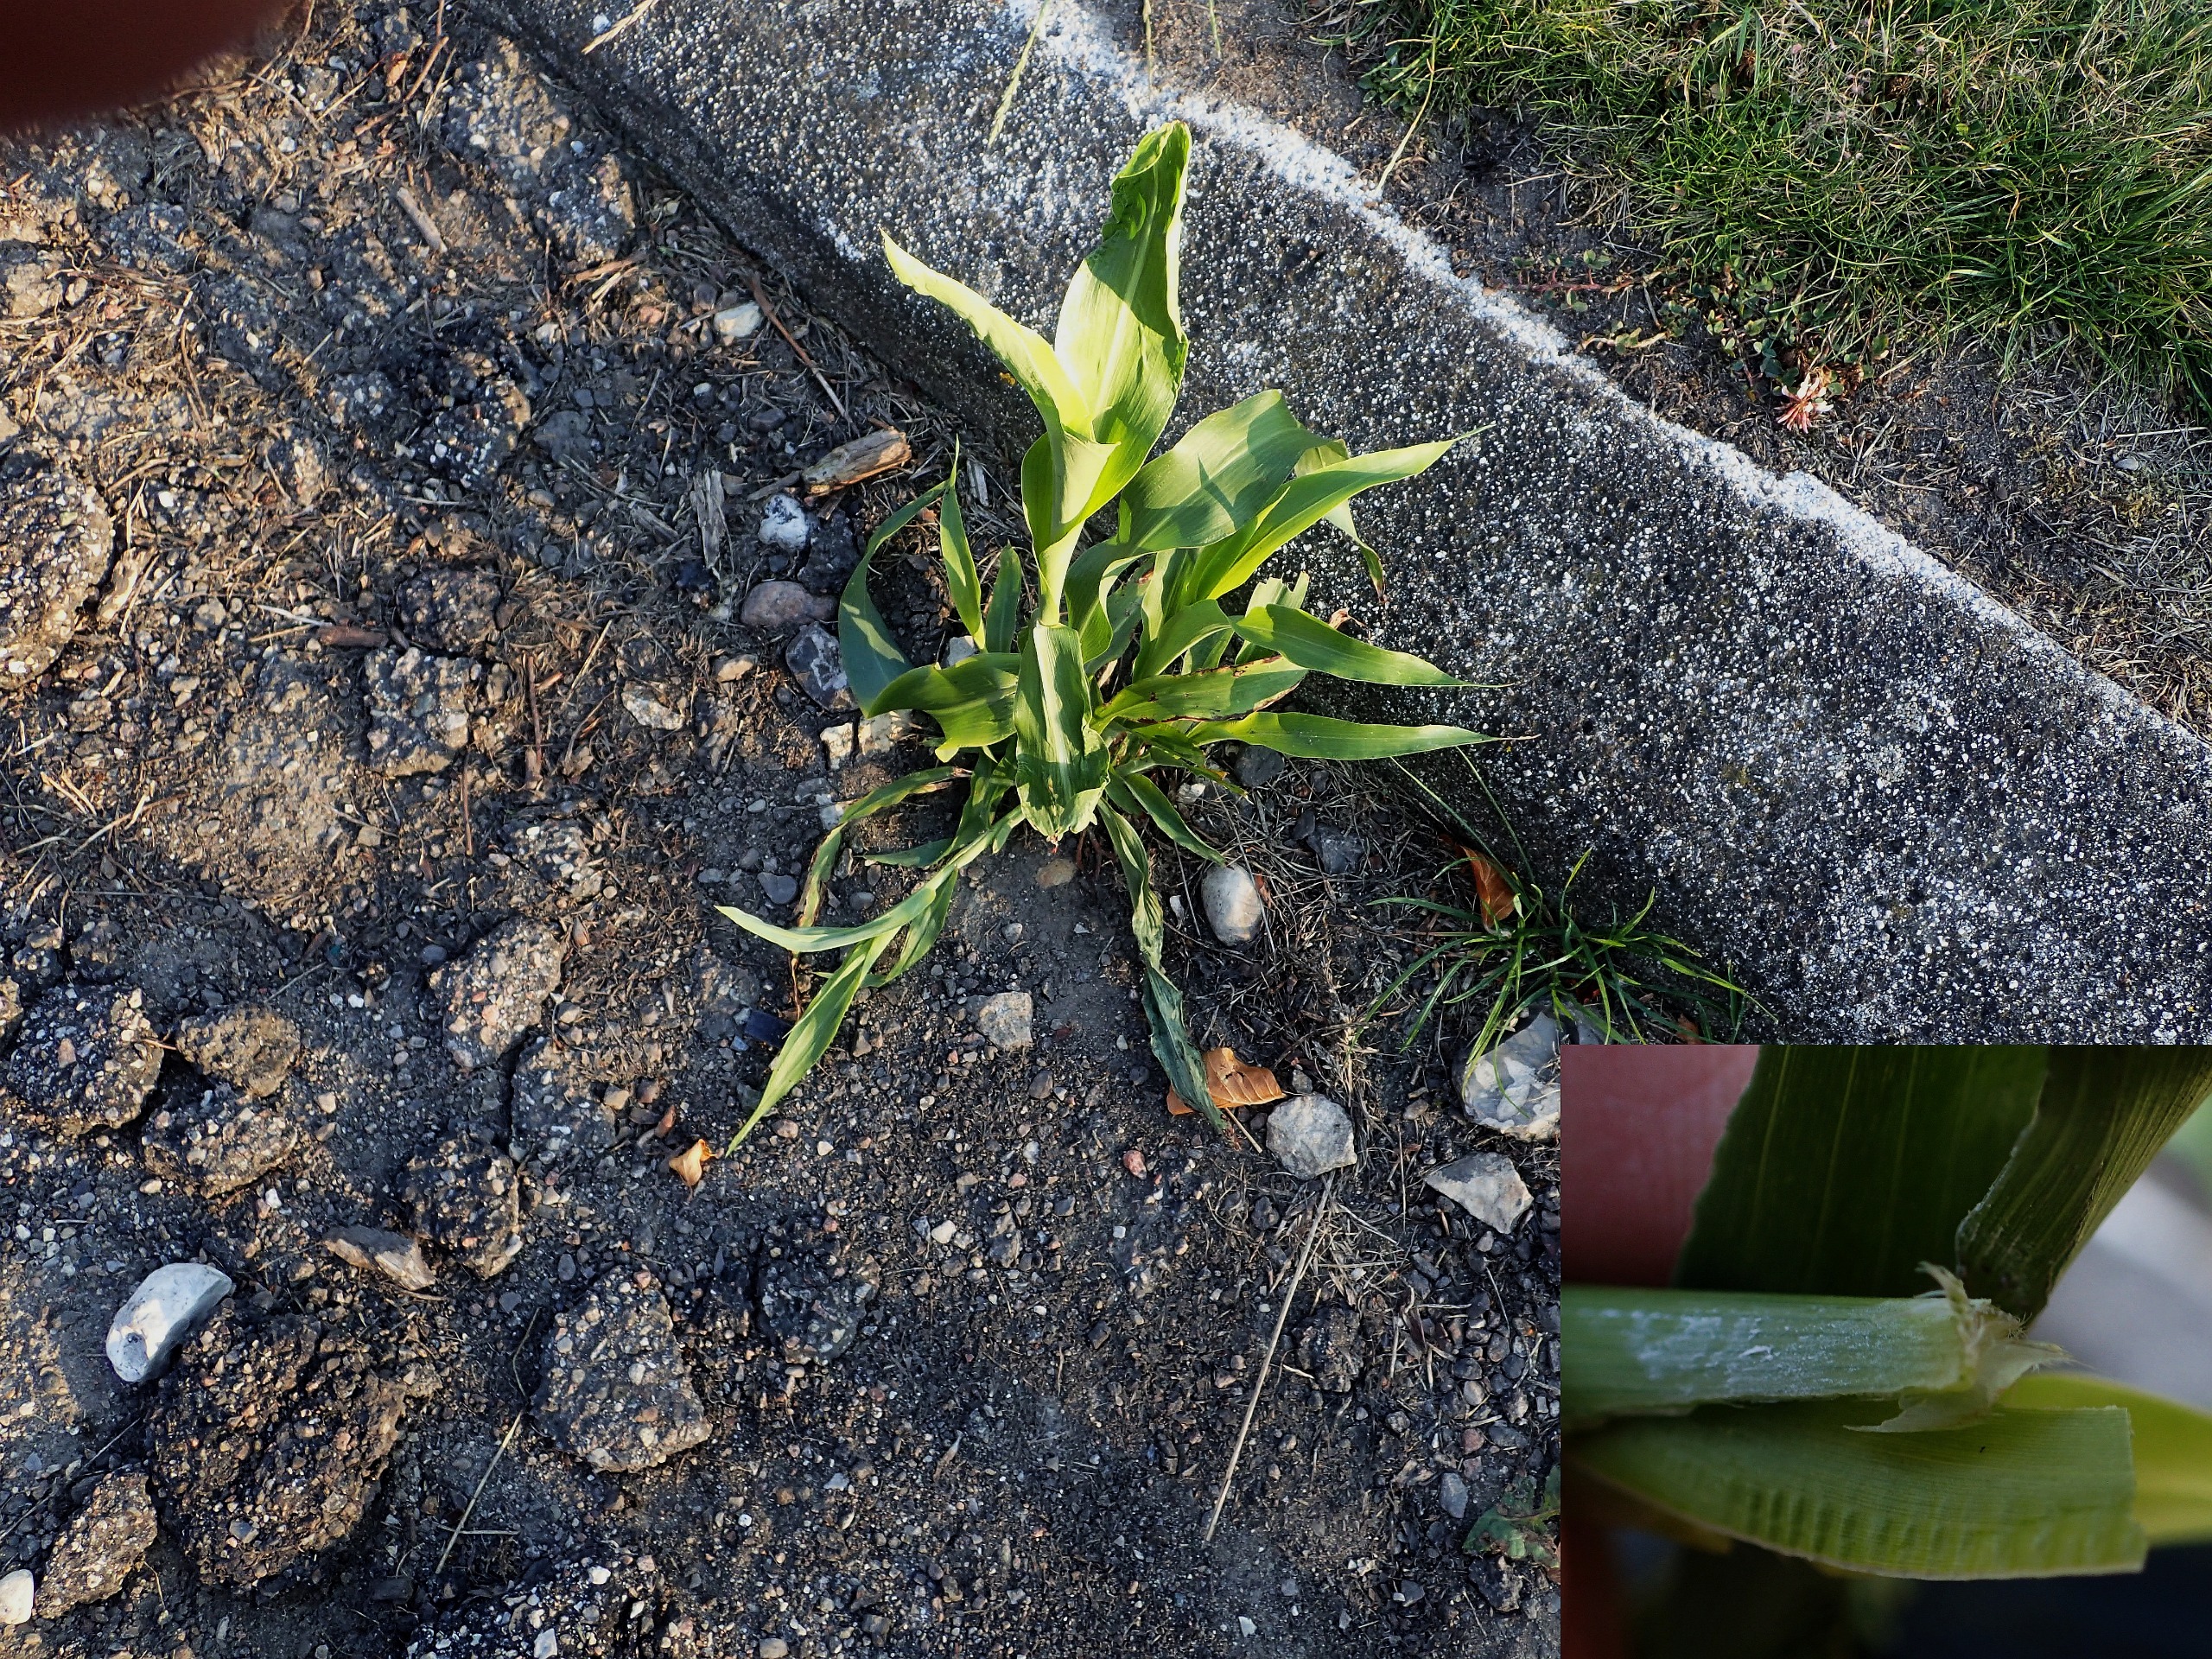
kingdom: Plantae
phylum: Tracheophyta
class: Liliopsida
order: Poales
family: Poaceae
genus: Zea
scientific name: Zea mays
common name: Majs
